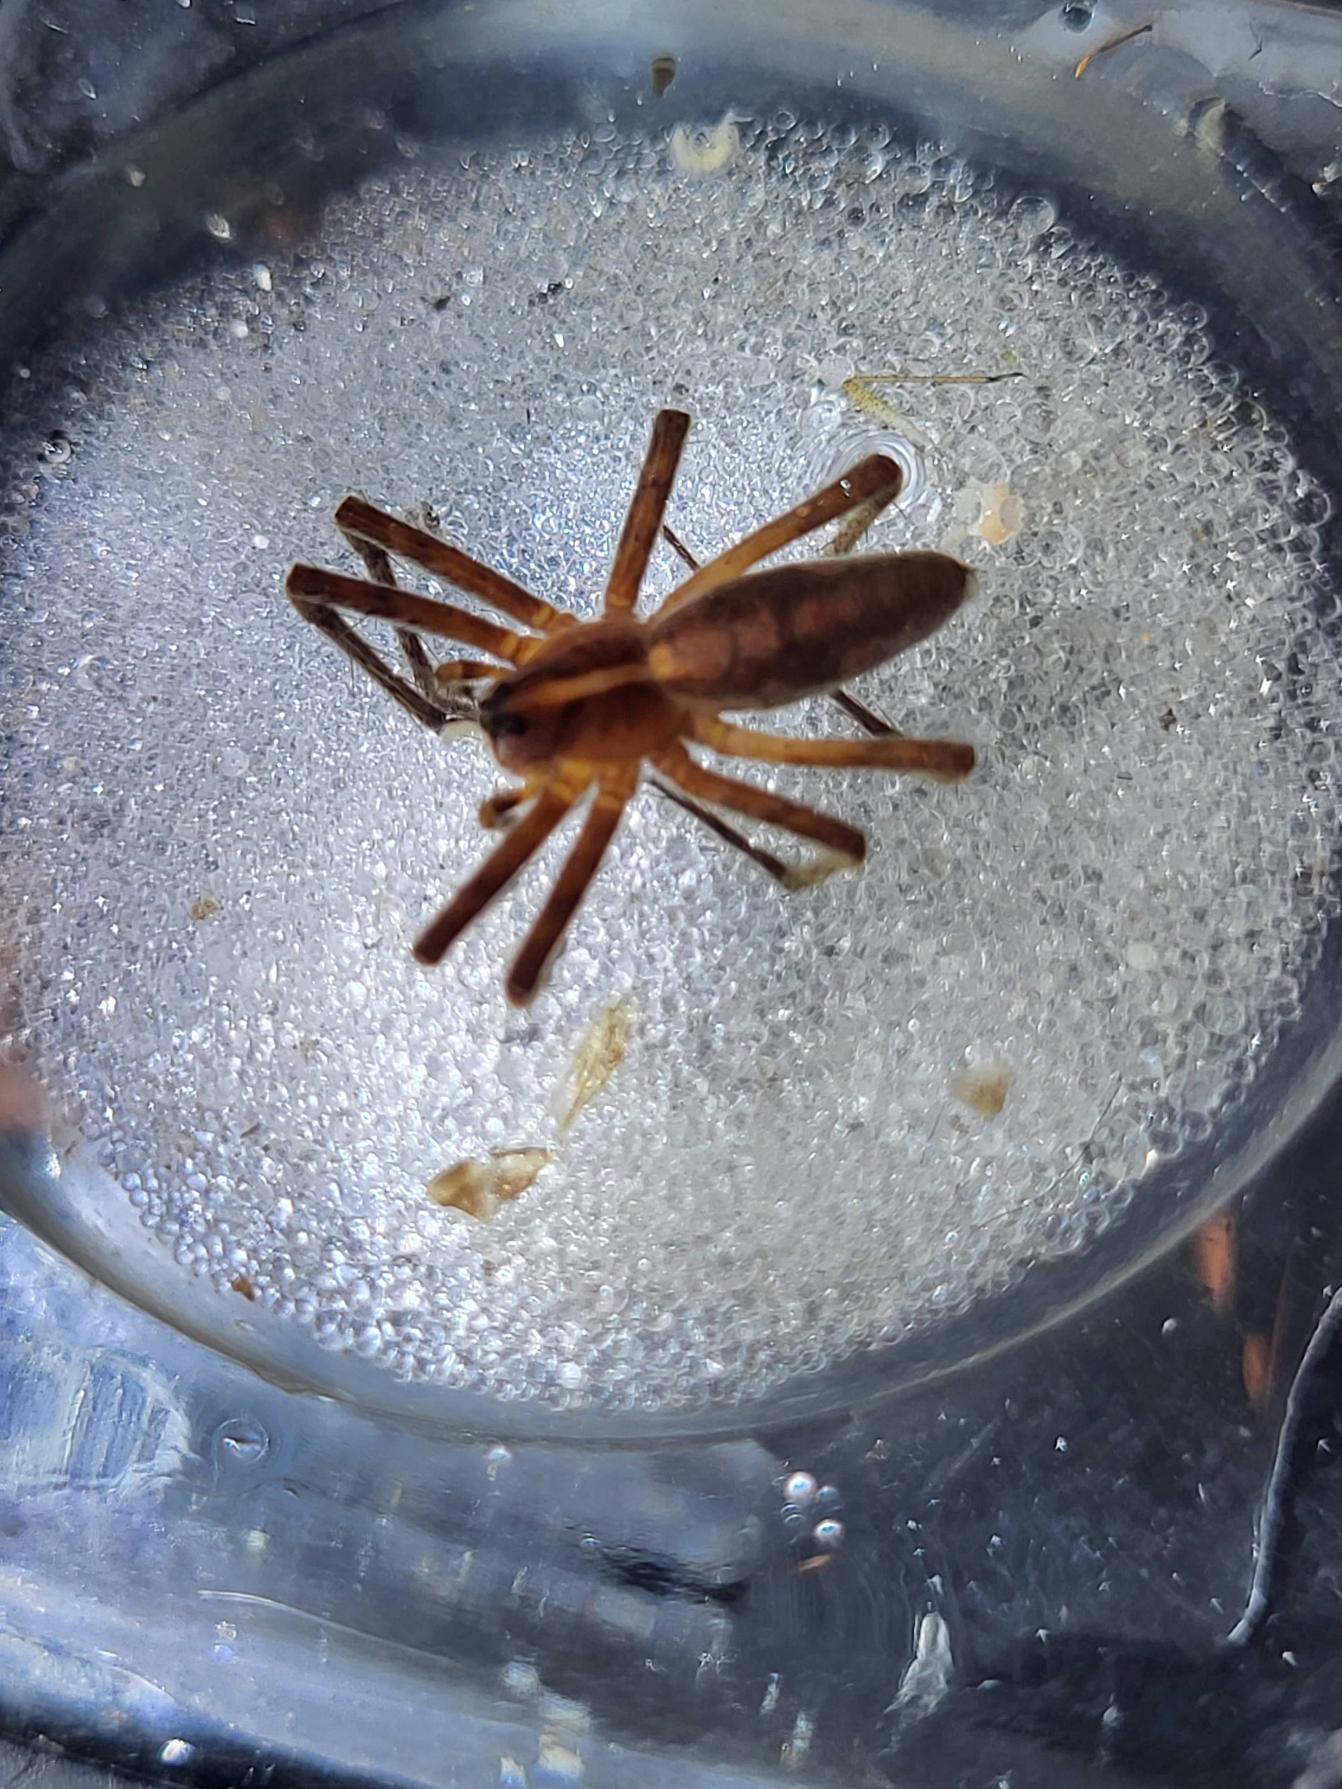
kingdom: Animalia
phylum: Arthropoda
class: Arachnida
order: Araneae
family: Pisauridae
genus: Pisaura
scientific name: Pisaura mirabilis
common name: Almindelig rovedderkop
